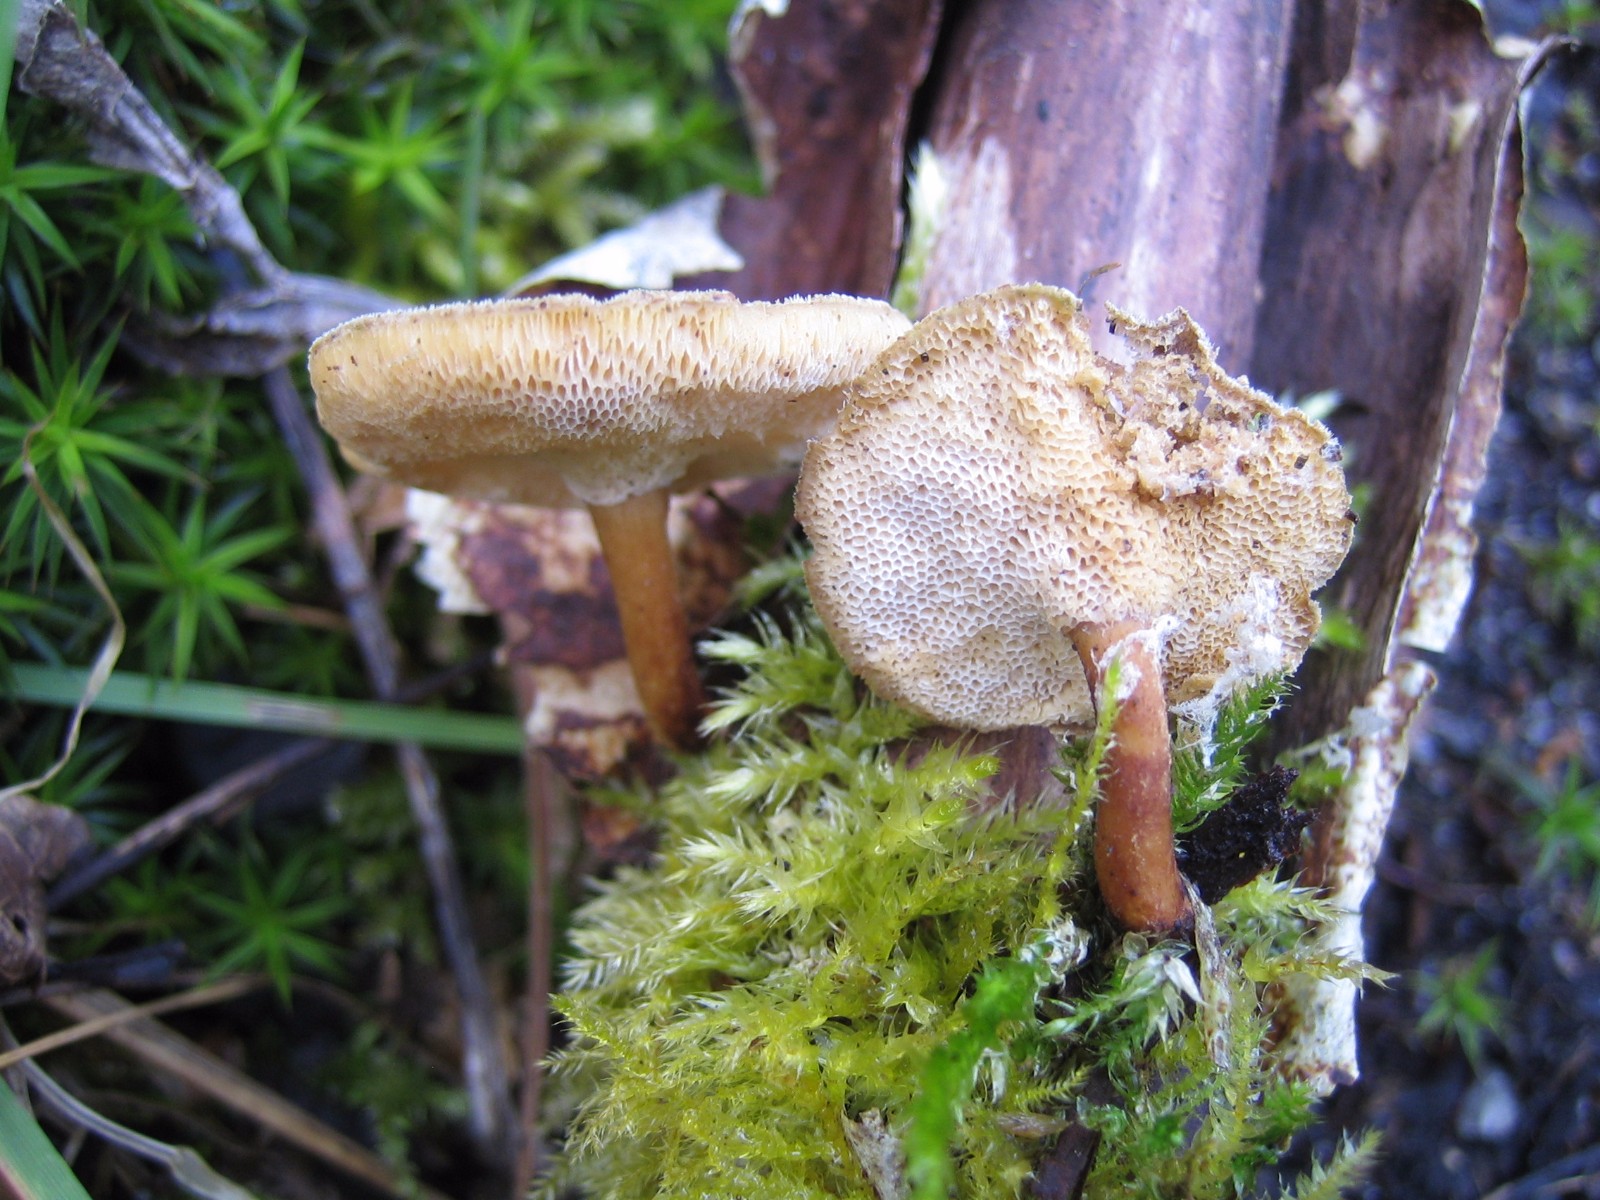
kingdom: Fungi
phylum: Basidiomycota
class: Agaricomycetes
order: Polyporales
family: Polyporaceae
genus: Lentinus
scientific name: Lentinus brumalis
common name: vinter-stilkporesvamp
